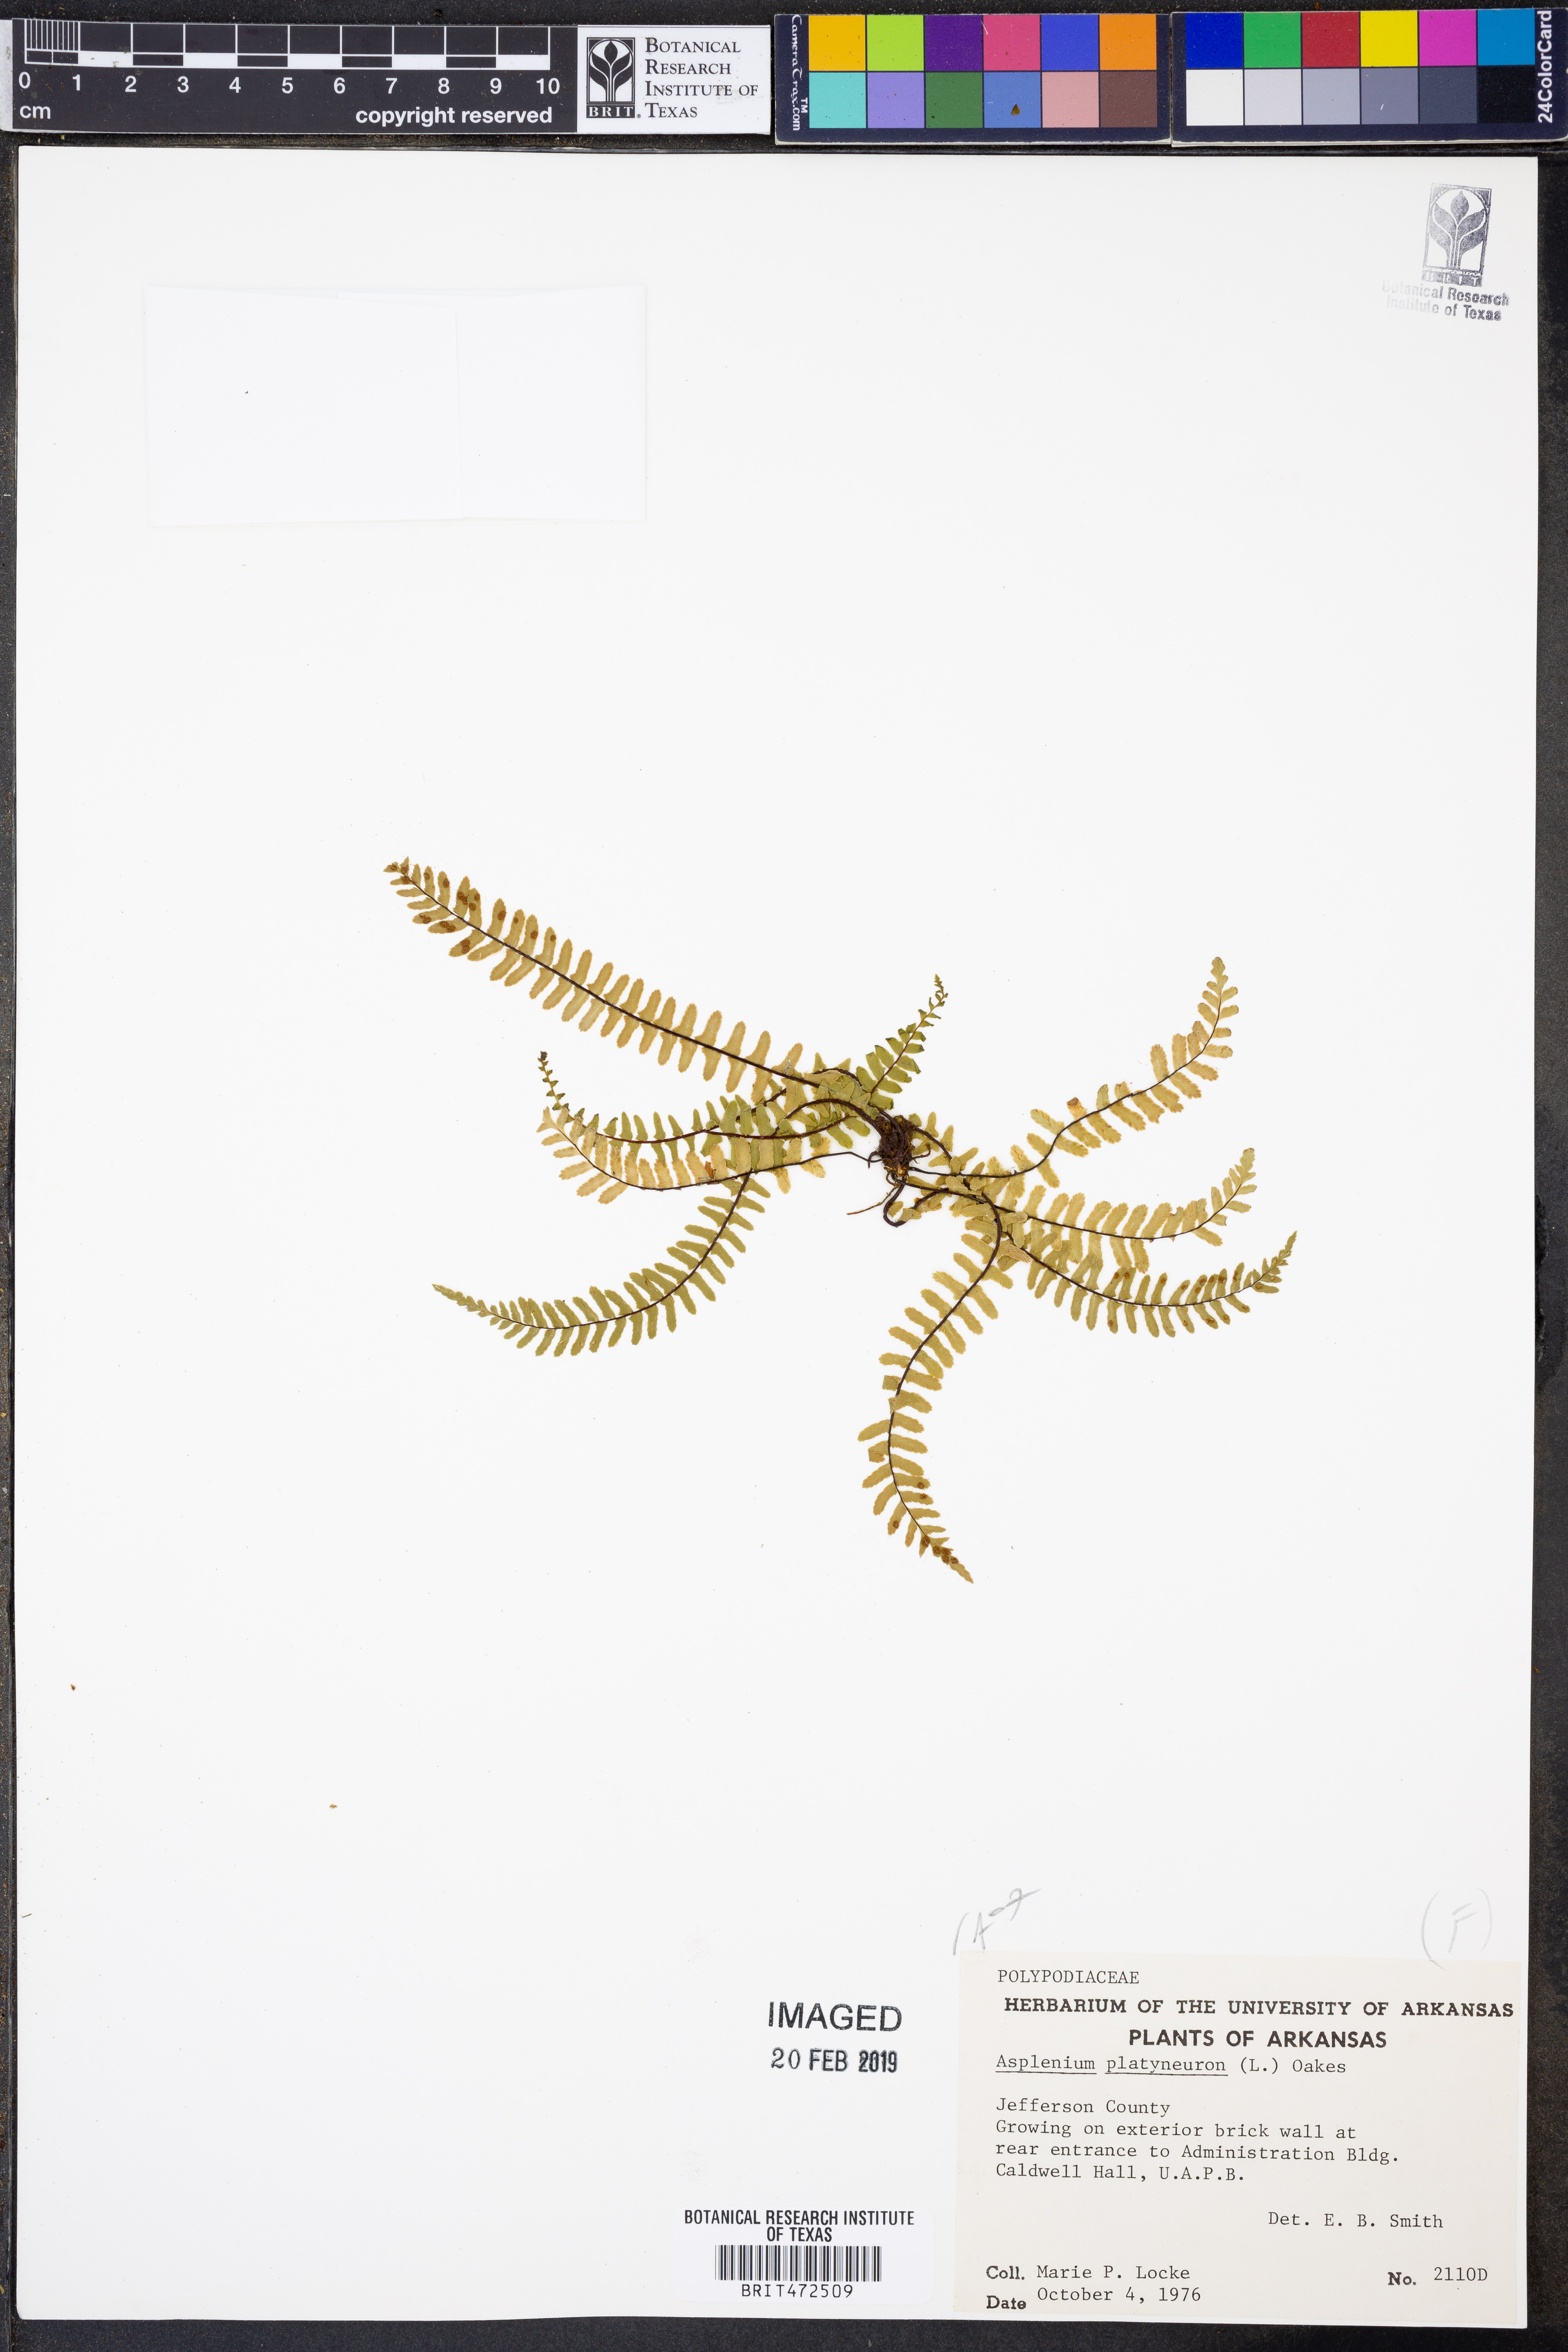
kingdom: Plantae
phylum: Tracheophyta
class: Polypodiopsida
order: Polypodiales
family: Aspleniaceae
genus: Asplenium
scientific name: Asplenium platyneuron
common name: Ebony spleenwort
